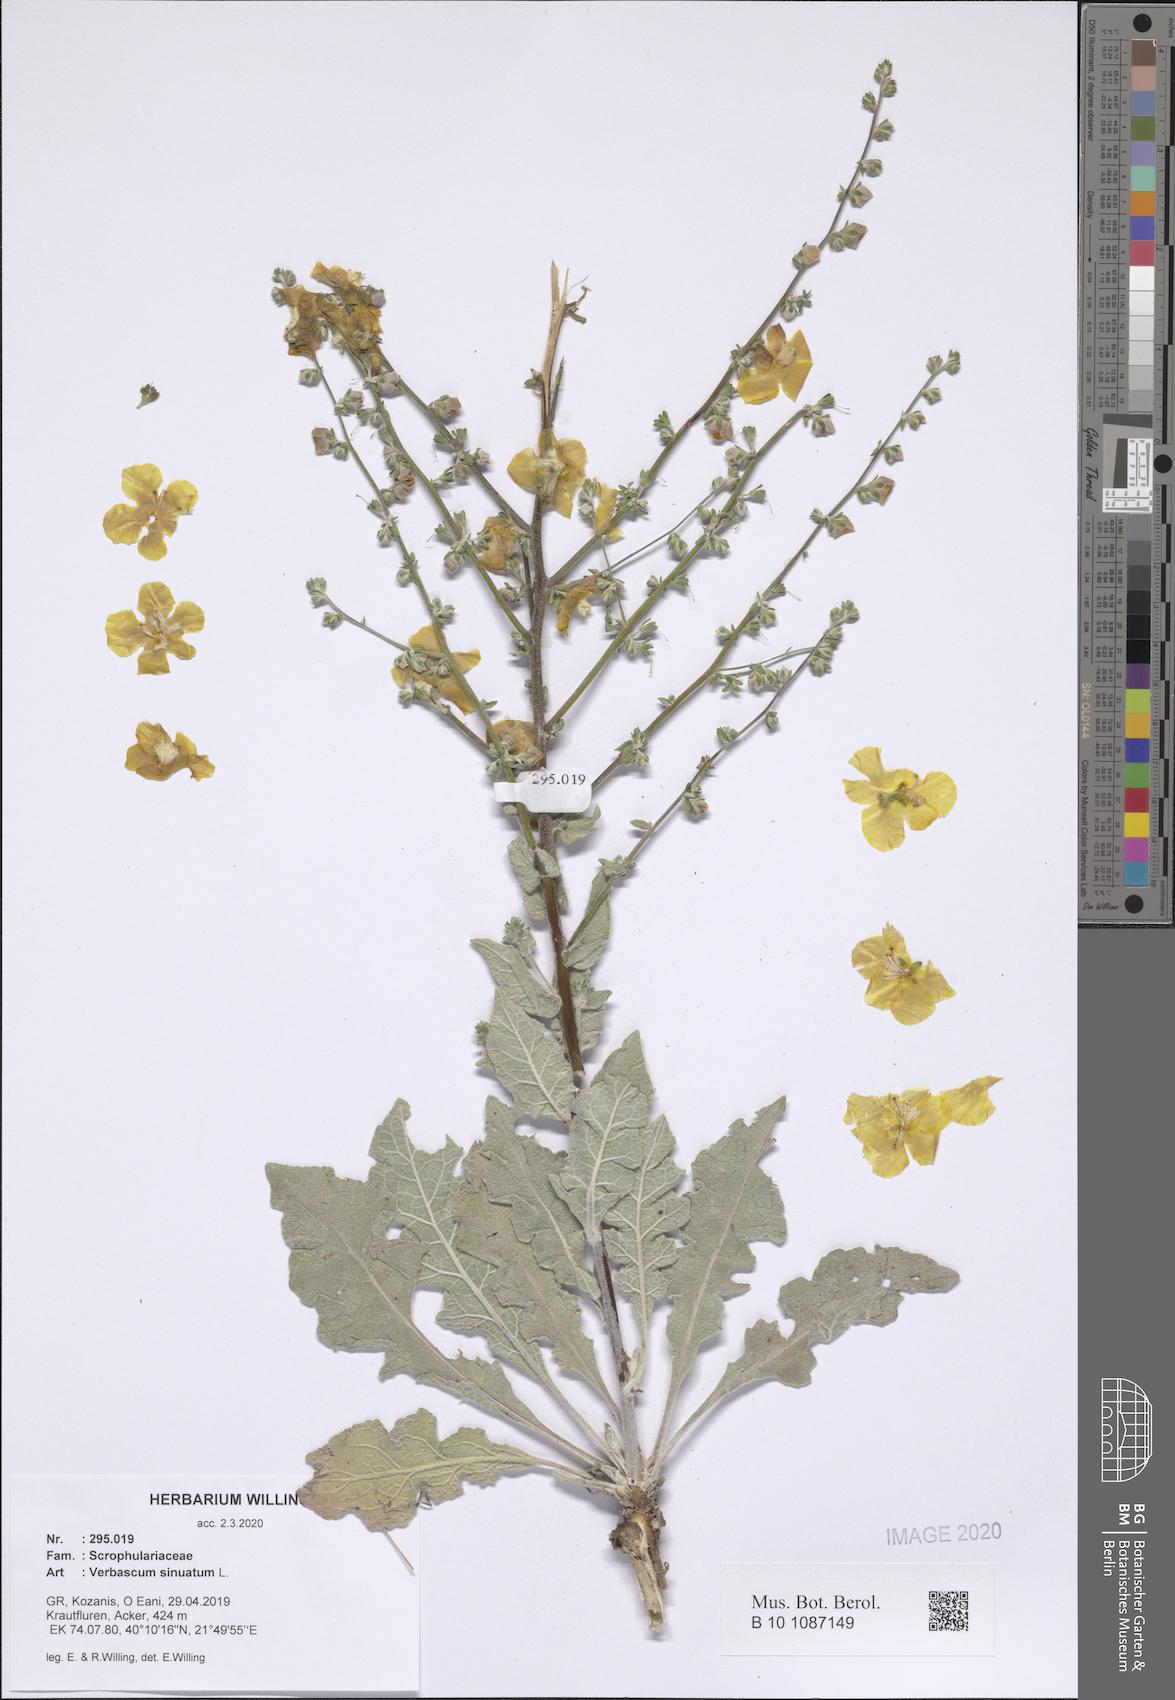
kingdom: Plantae
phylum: Tracheophyta
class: Magnoliopsida
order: Lamiales
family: Scrophulariaceae
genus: Verbascum
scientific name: Verbascum sinuatum
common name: Wavyleaf mullein
